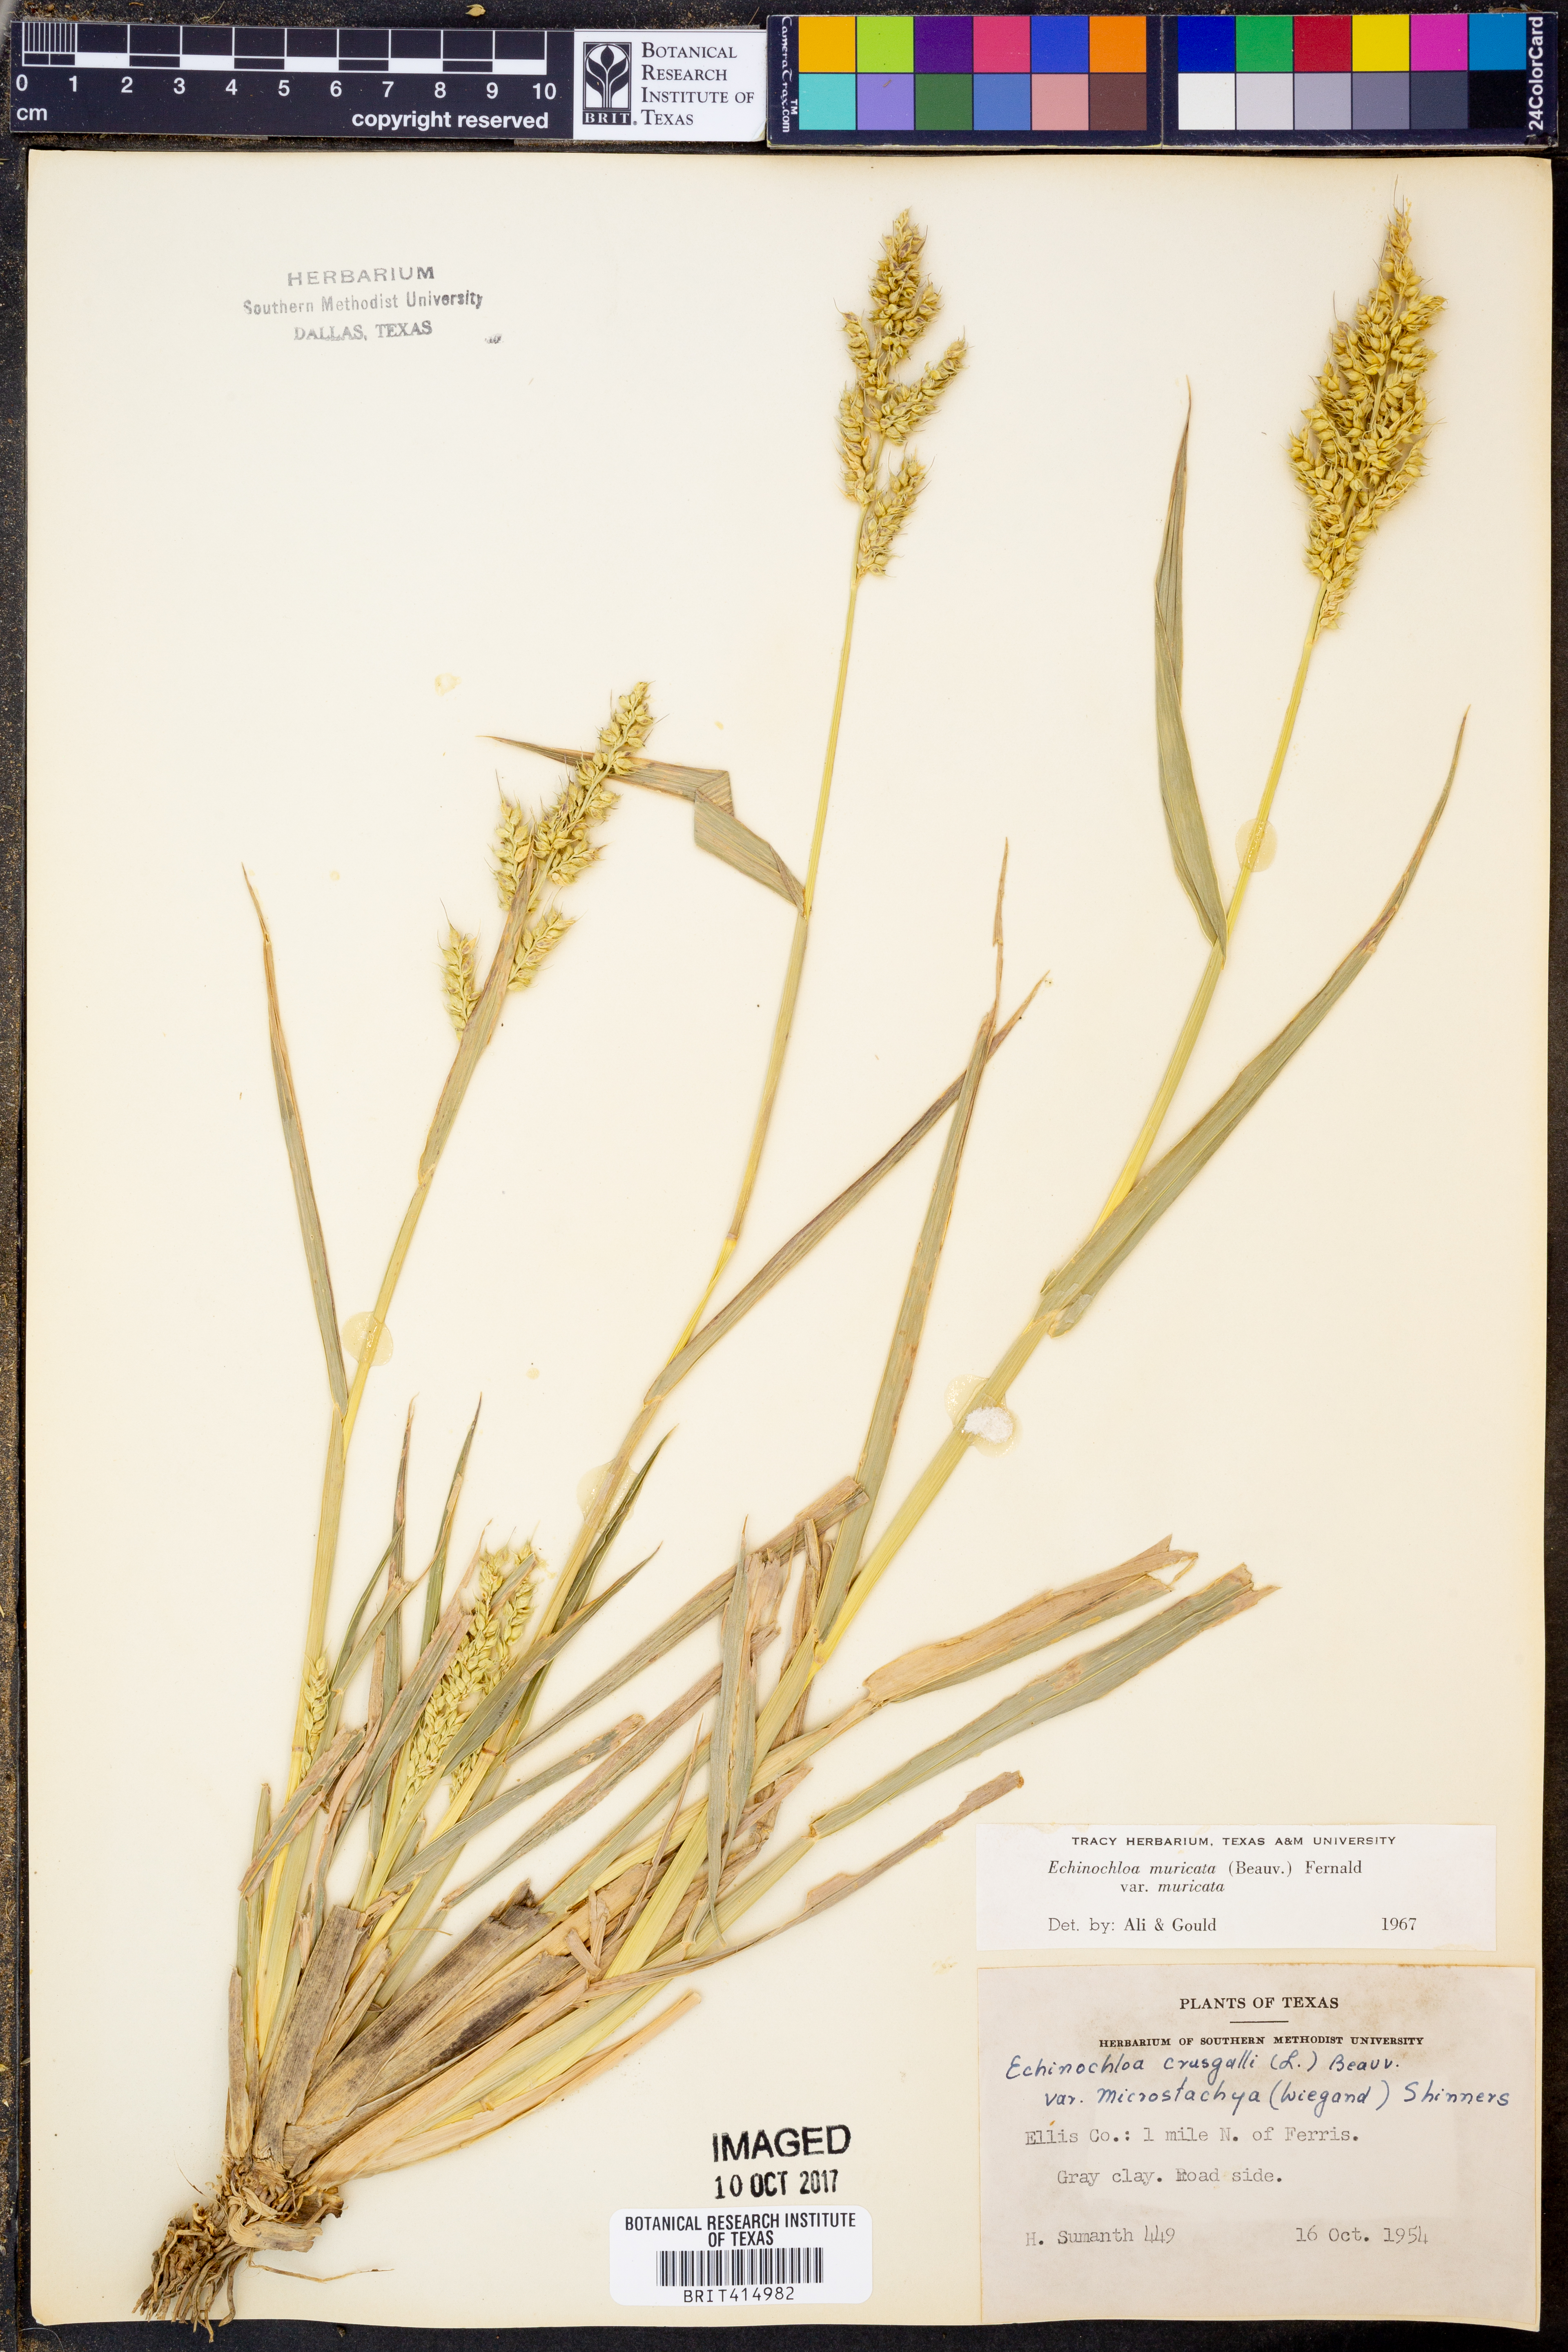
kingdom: Plantae
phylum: Tracheophyta
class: Liliopsida
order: Poales
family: Poaceae
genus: Echinochloa
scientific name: Echinochloa muricata
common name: American barnyard grass
